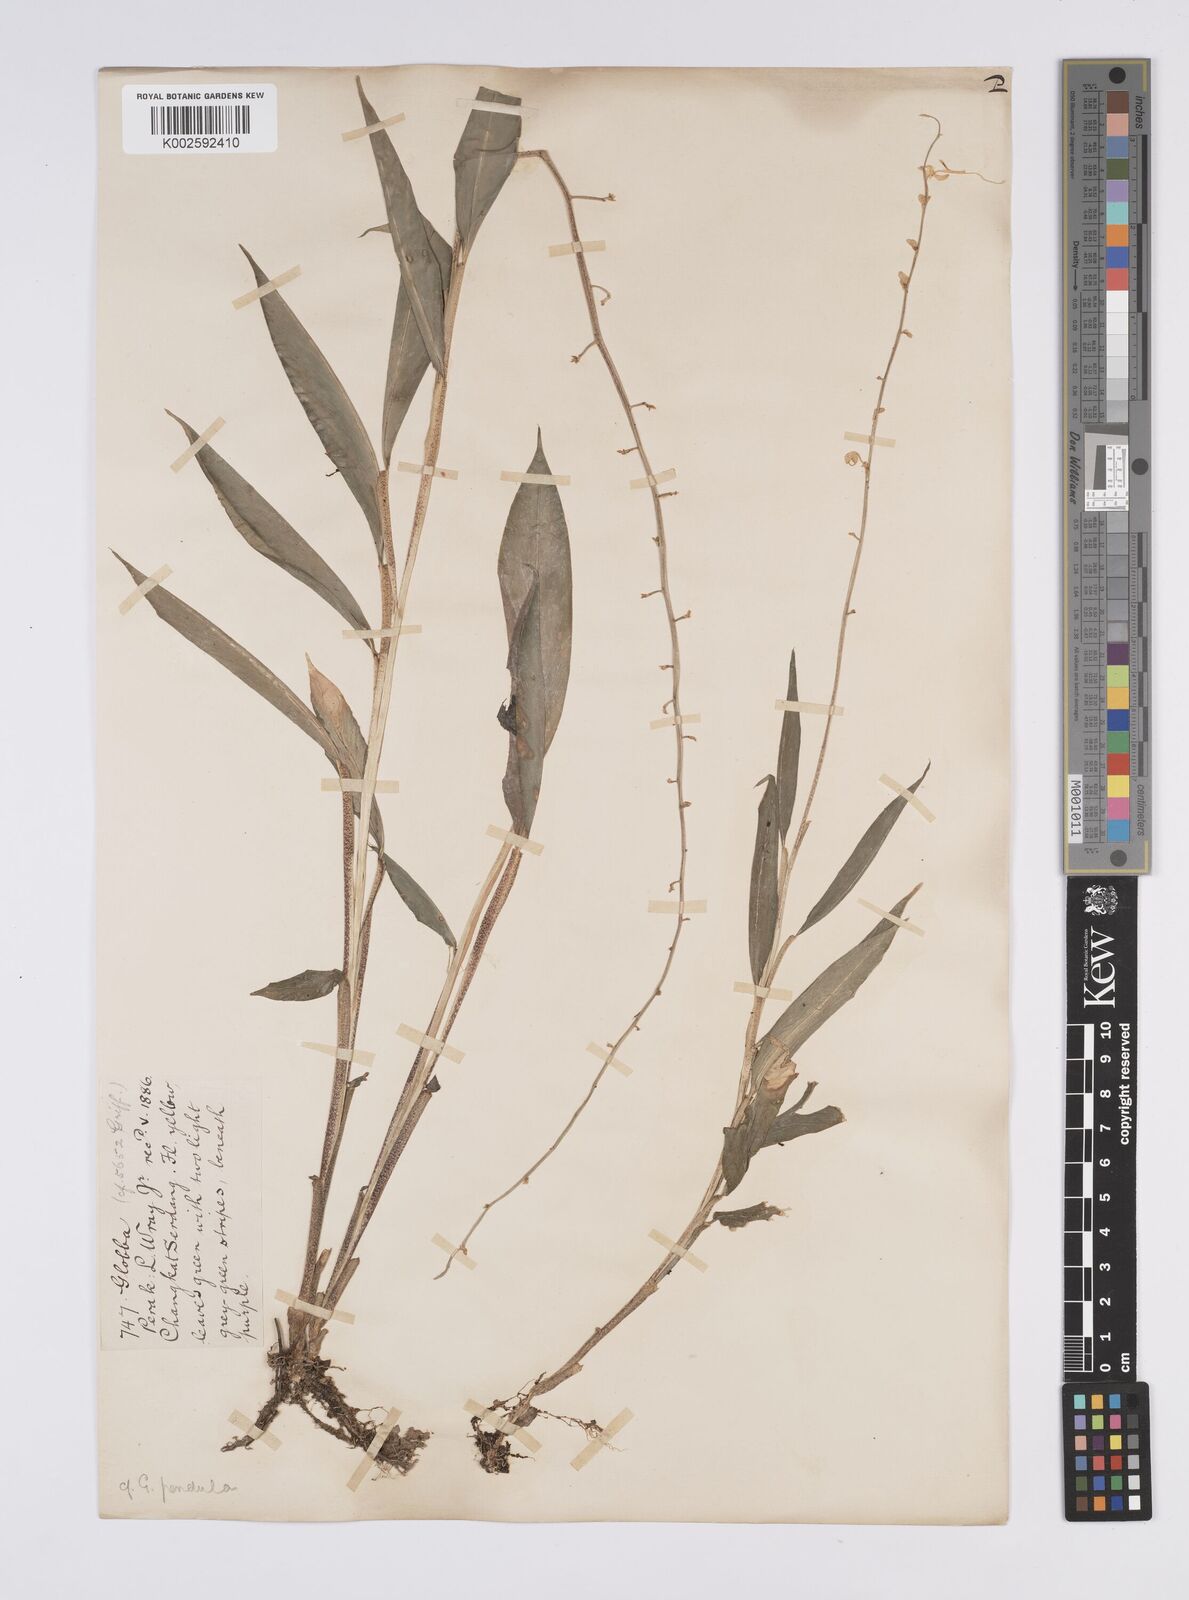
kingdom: Plantae
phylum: Tracheophyta
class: Liliopsida
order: Zingiberales
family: Zingiberaceae
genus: Globba
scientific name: Globba pendula
